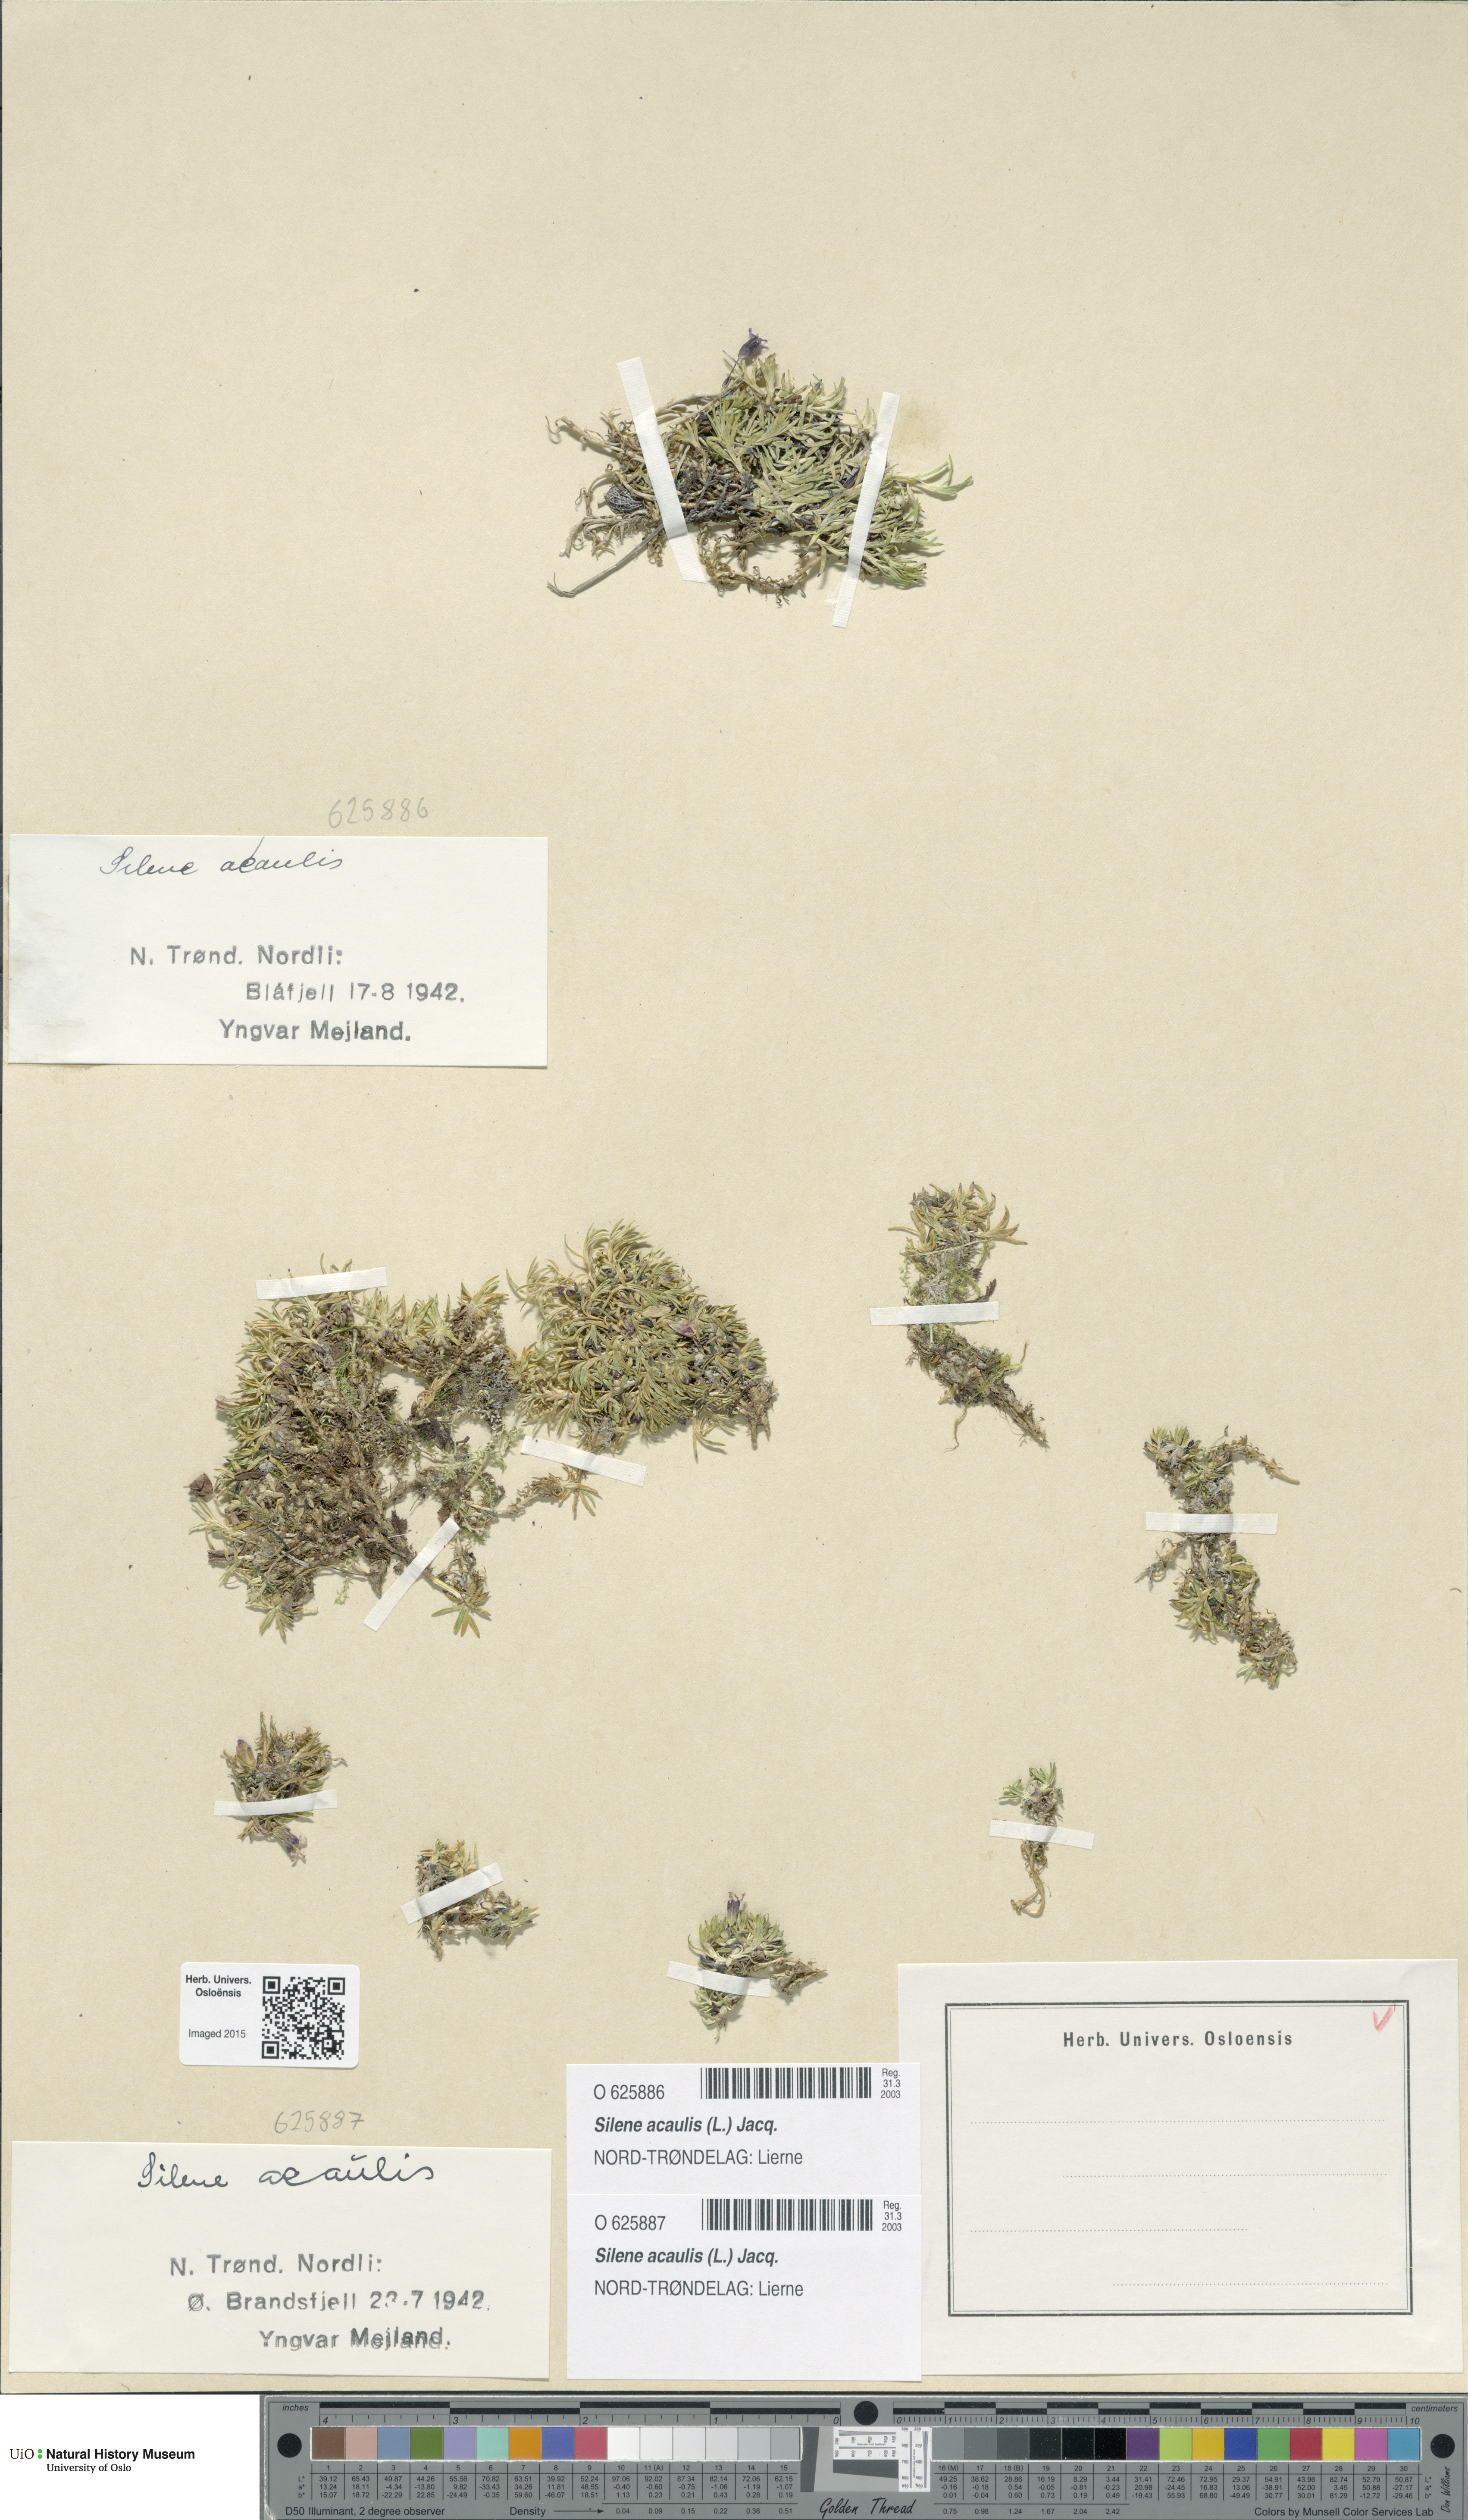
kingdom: Plantae
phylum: Tracheophyta
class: Magnoliopsida
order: Caryophyllales
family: Caryophyllaceae
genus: Silene
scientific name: Silene acaulis
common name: Moss campion
